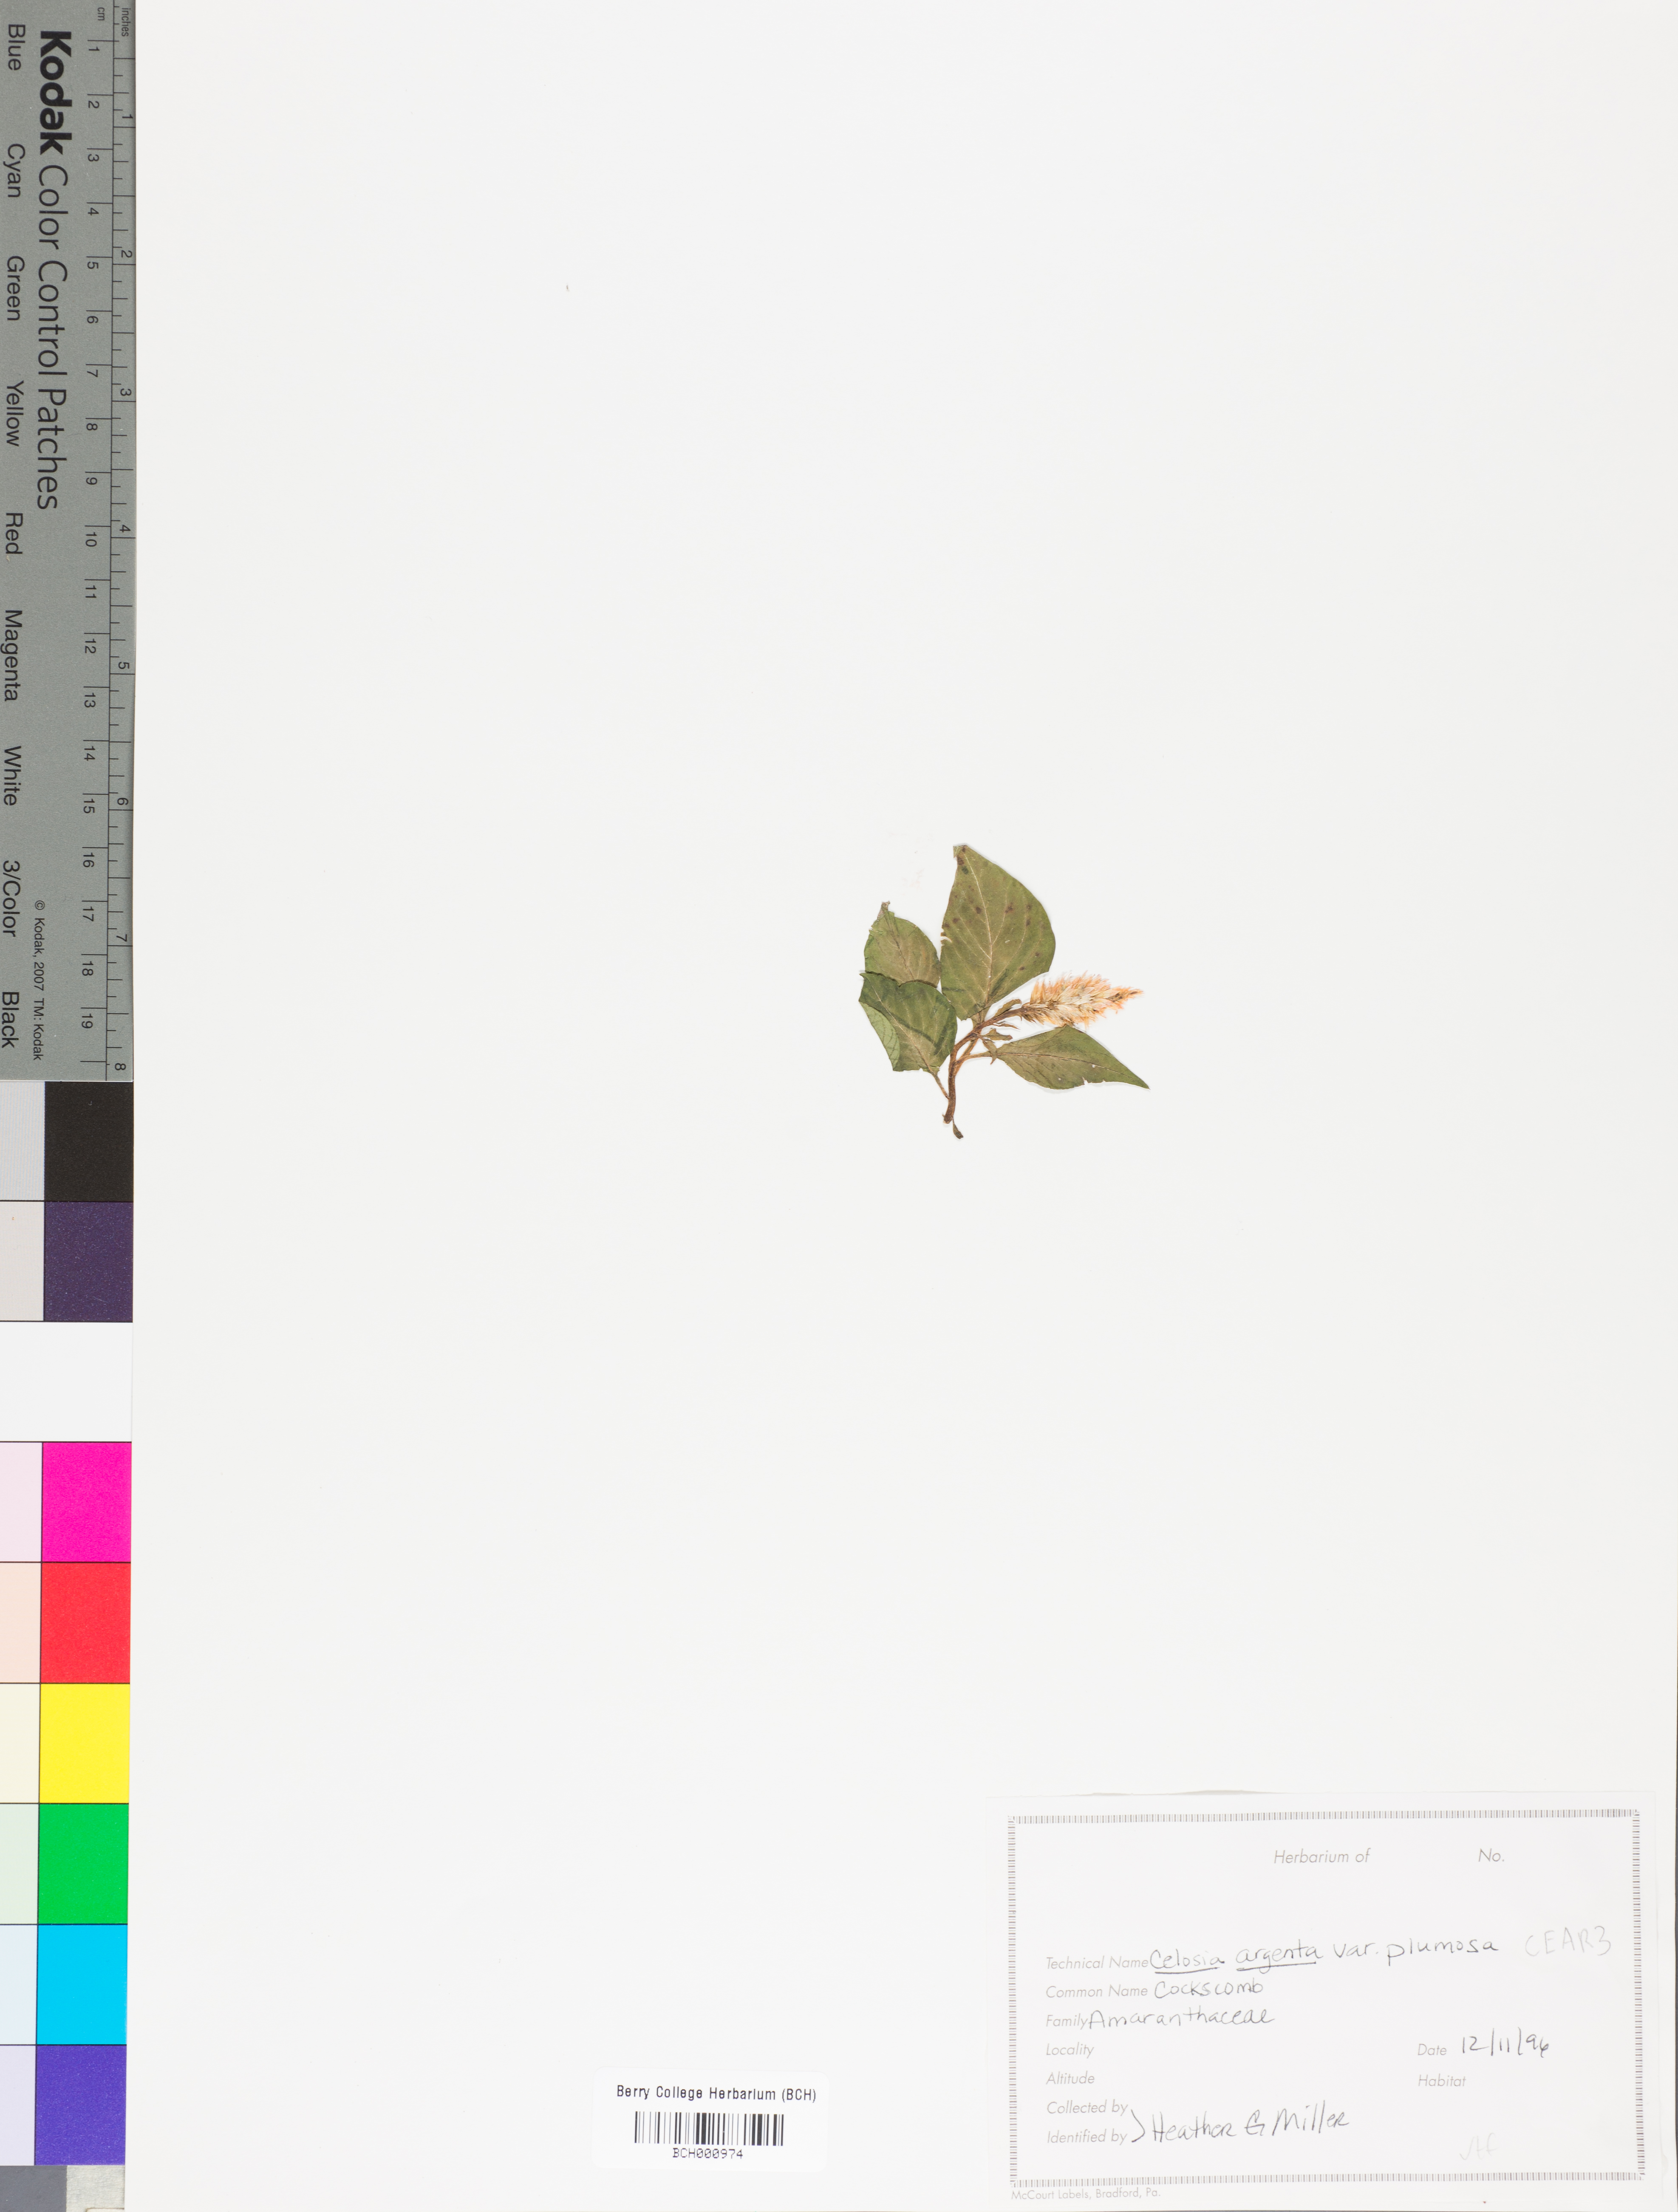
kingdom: Plantae
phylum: Tracheophyta
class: Magnoliopsida
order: Caryophyllales
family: Amaranthaceae
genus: Celosia
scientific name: Celosia argentea
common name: Feather cockscomb
